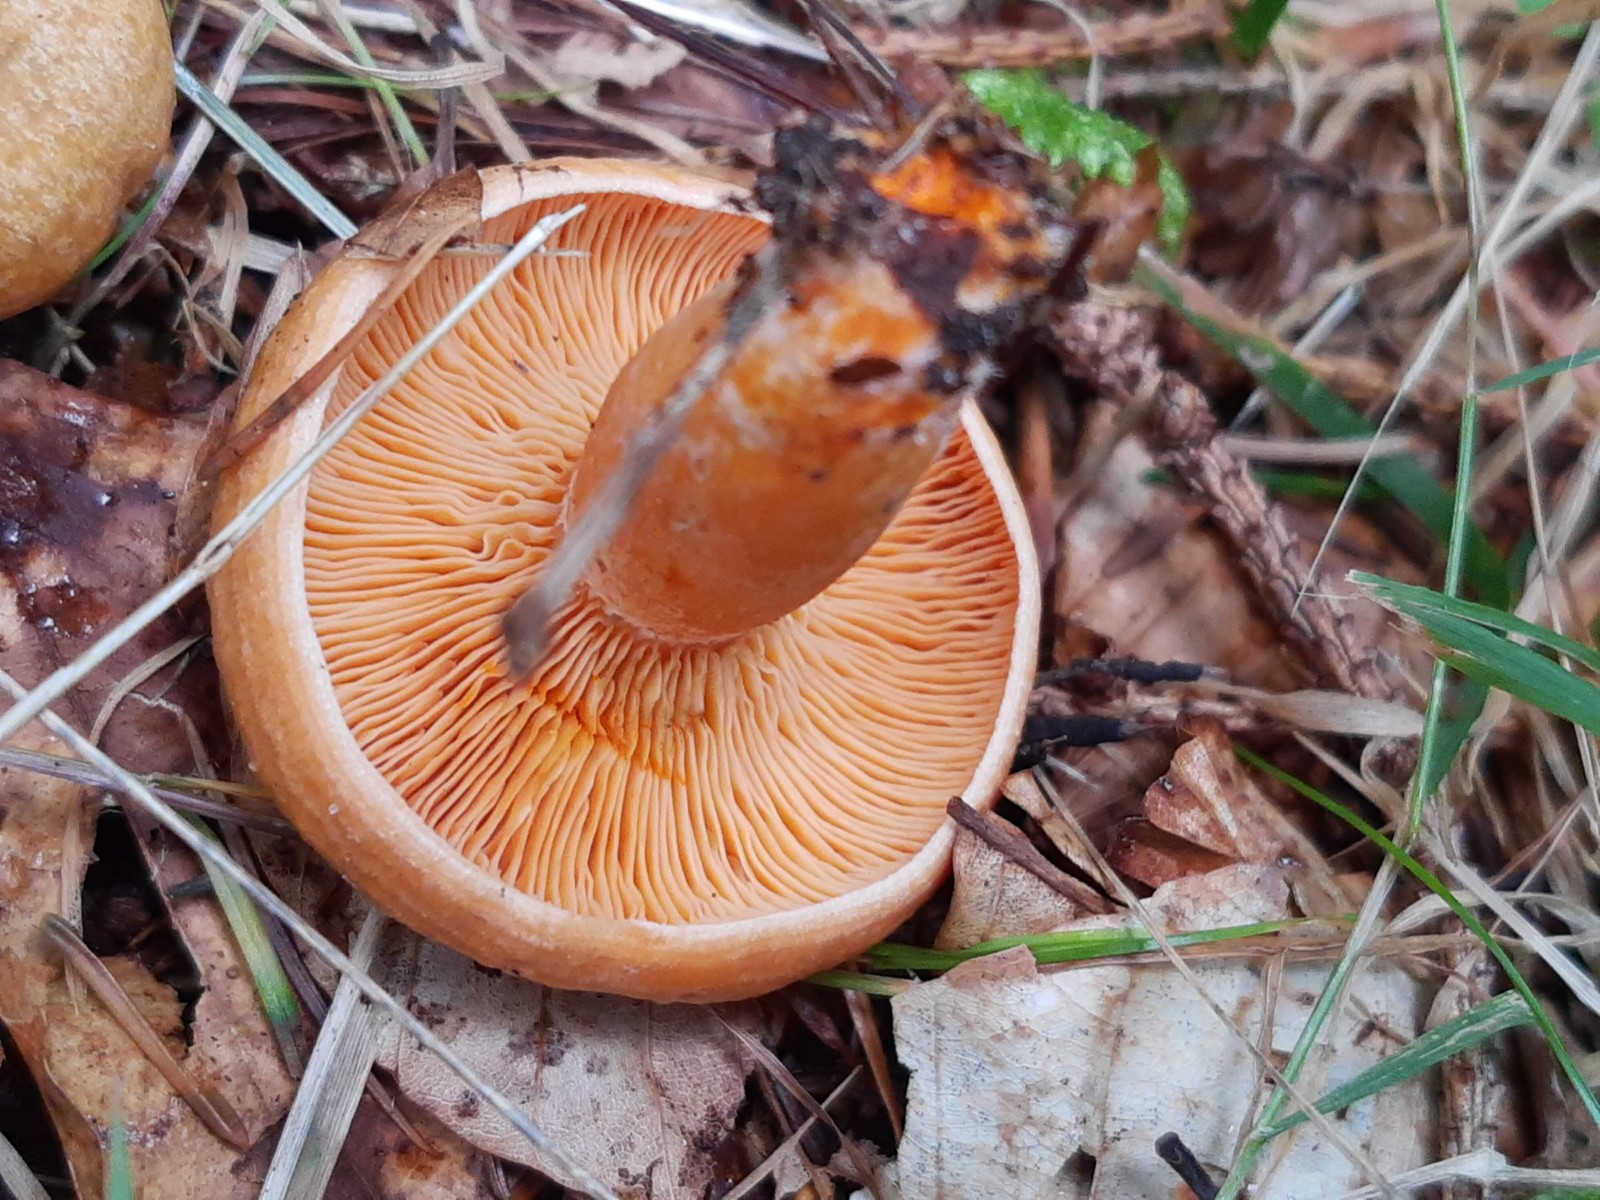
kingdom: Fungi
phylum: Basidiomycota
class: Agaricomycetes
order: Russulales
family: Russulaceae
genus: Lactarius
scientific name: Lactarius deterrimus
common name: gran-mælkehat
